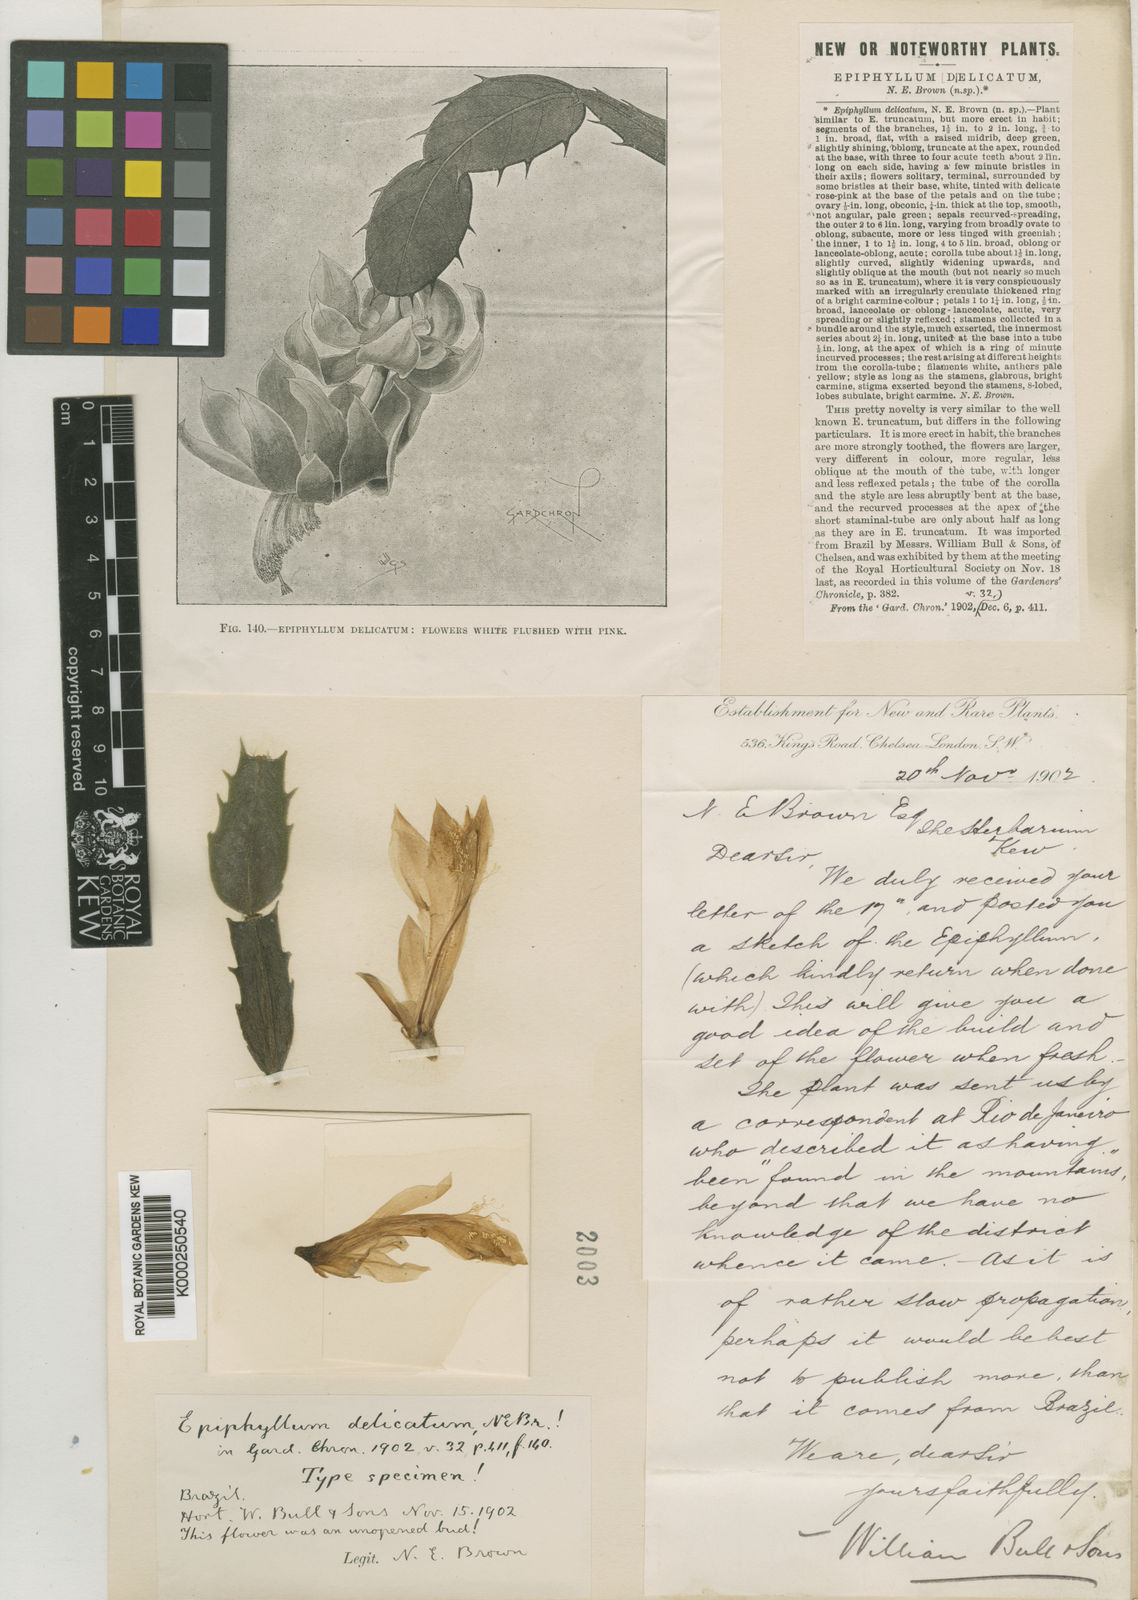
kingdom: Plantae
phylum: Tracheophyta
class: Magnoliopsida
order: Caryophyllales
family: Cactaceae
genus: Schlumbergera
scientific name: Schlumbergera truncata
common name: Thanksgiving cactus
